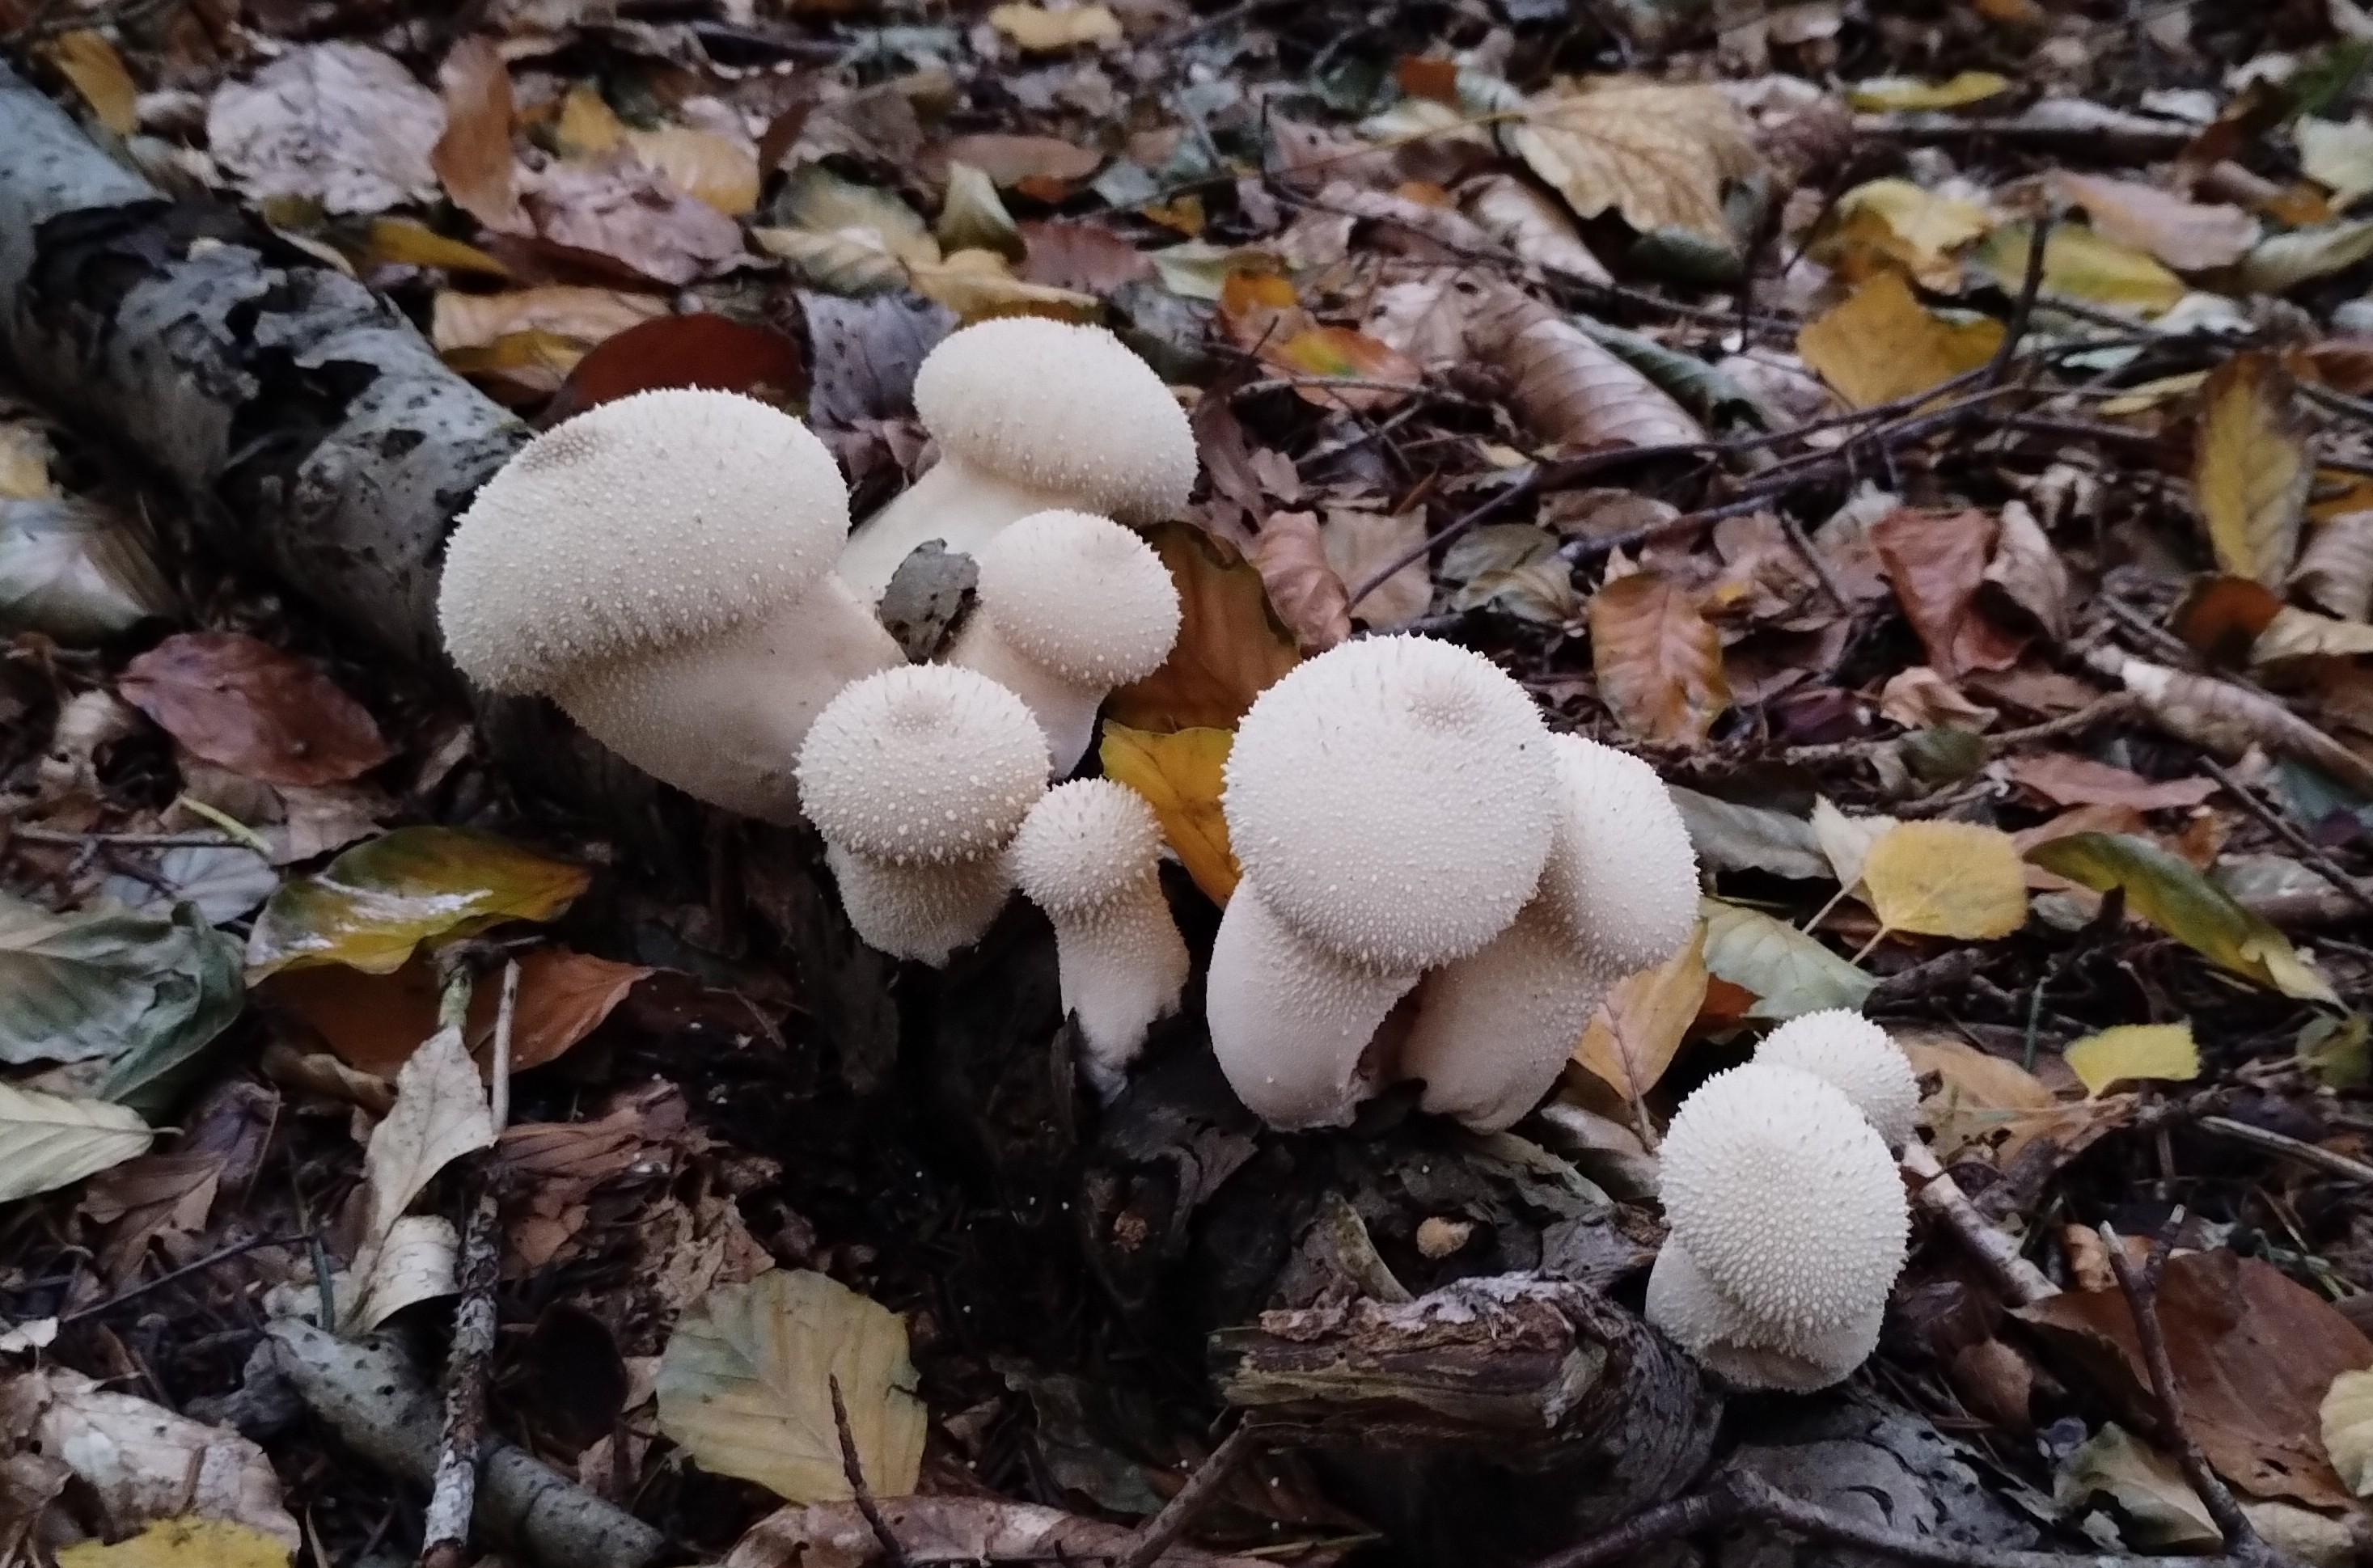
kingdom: Fungi
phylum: Basidiomycota
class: Agaricomycetes
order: Agaricales
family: Lycoperdaceae
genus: Lycoperdon
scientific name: Lycoperdon perlatum
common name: krystal-støvbold
